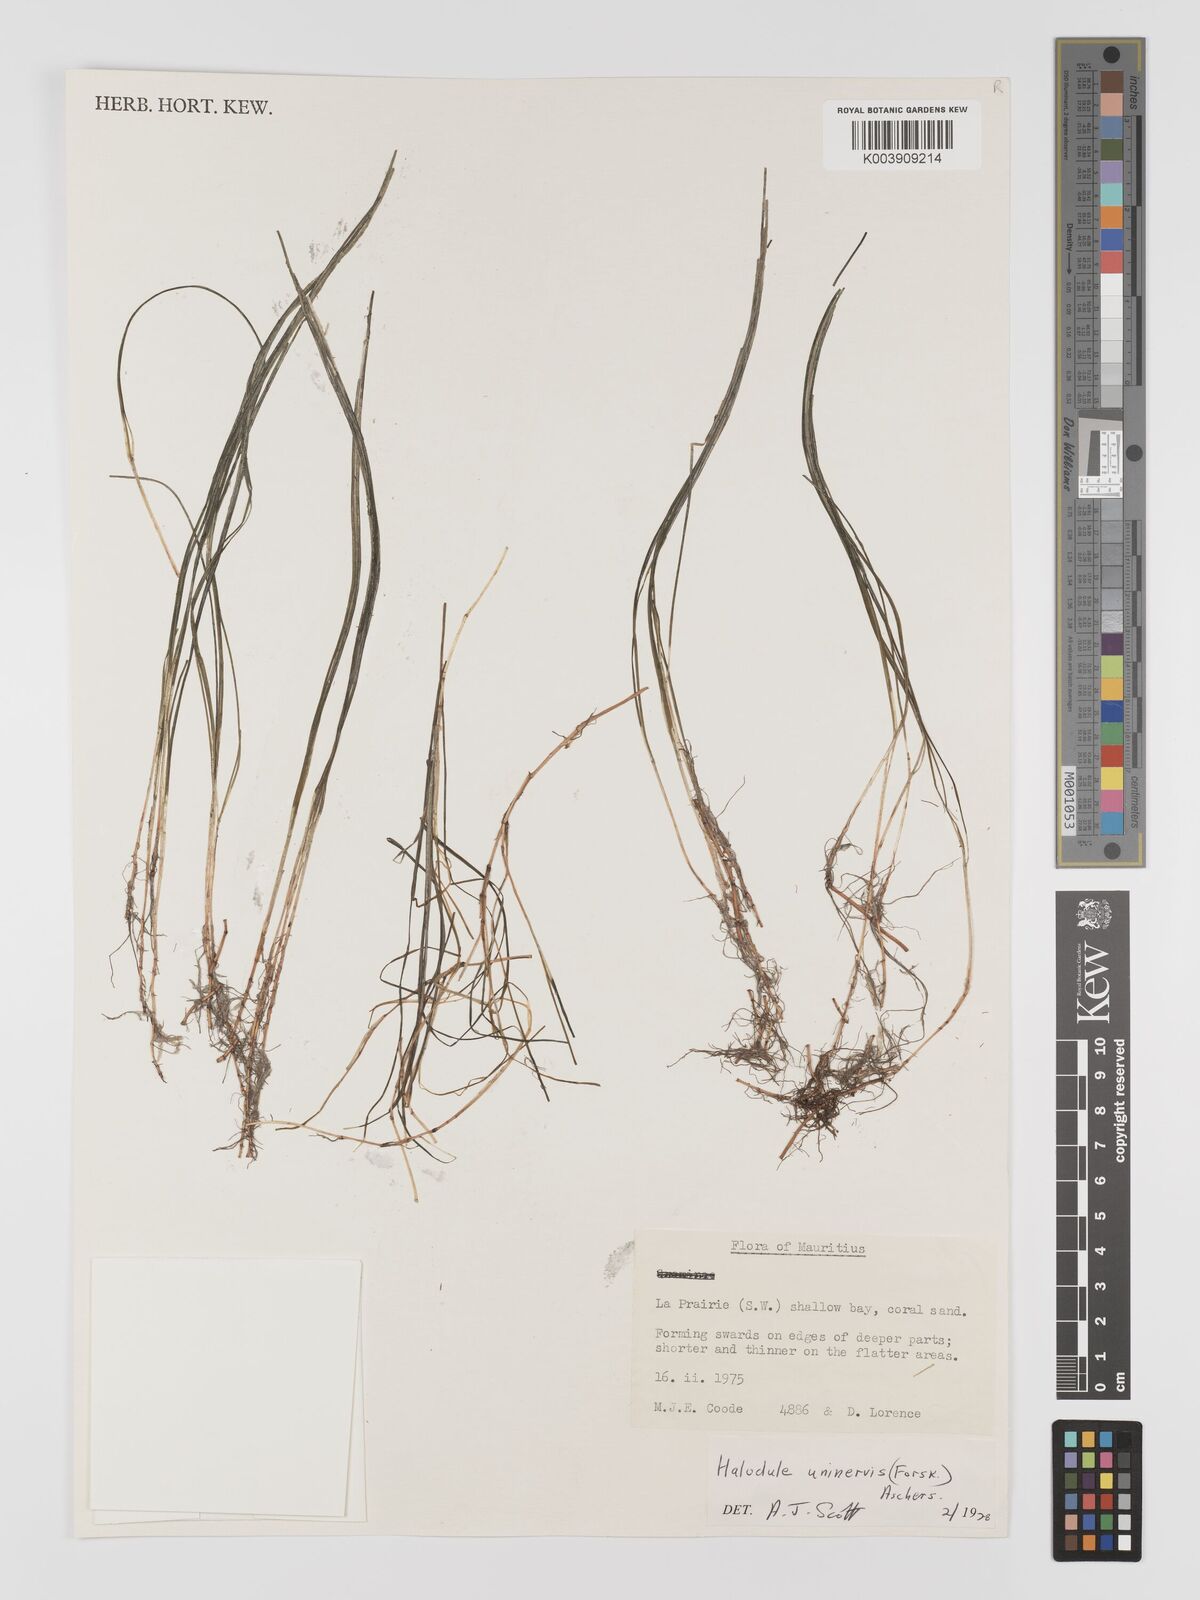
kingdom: Plantae
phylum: Tracheophyta
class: Liliopsida
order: Alismatales
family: Cymodoceaceae
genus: Halodule
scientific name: Halodule uninervis
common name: Narrowleaf seagrass
